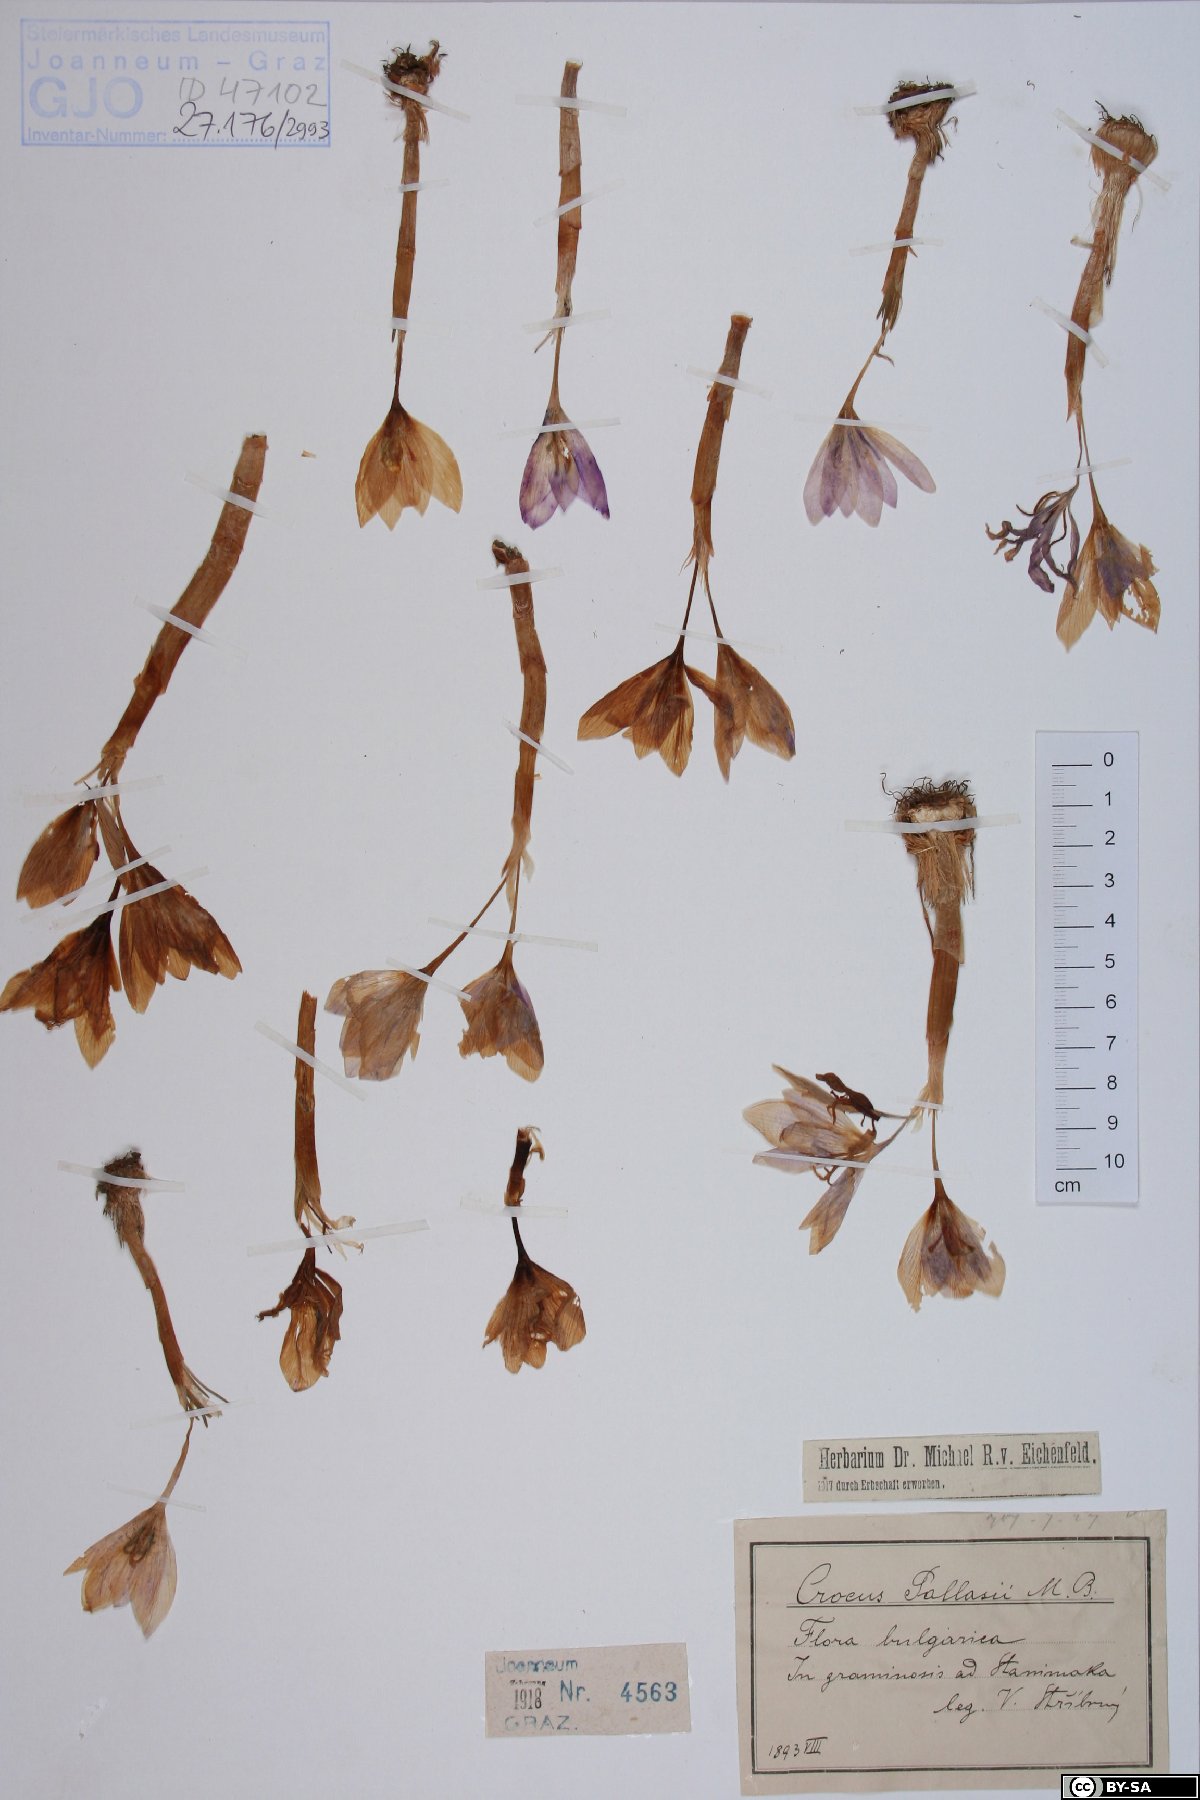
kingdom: Plantae
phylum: Tracheophyta
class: Liliopsida
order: Asparagales
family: Iridaceae
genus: Crocus
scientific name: Crocus pallasii
